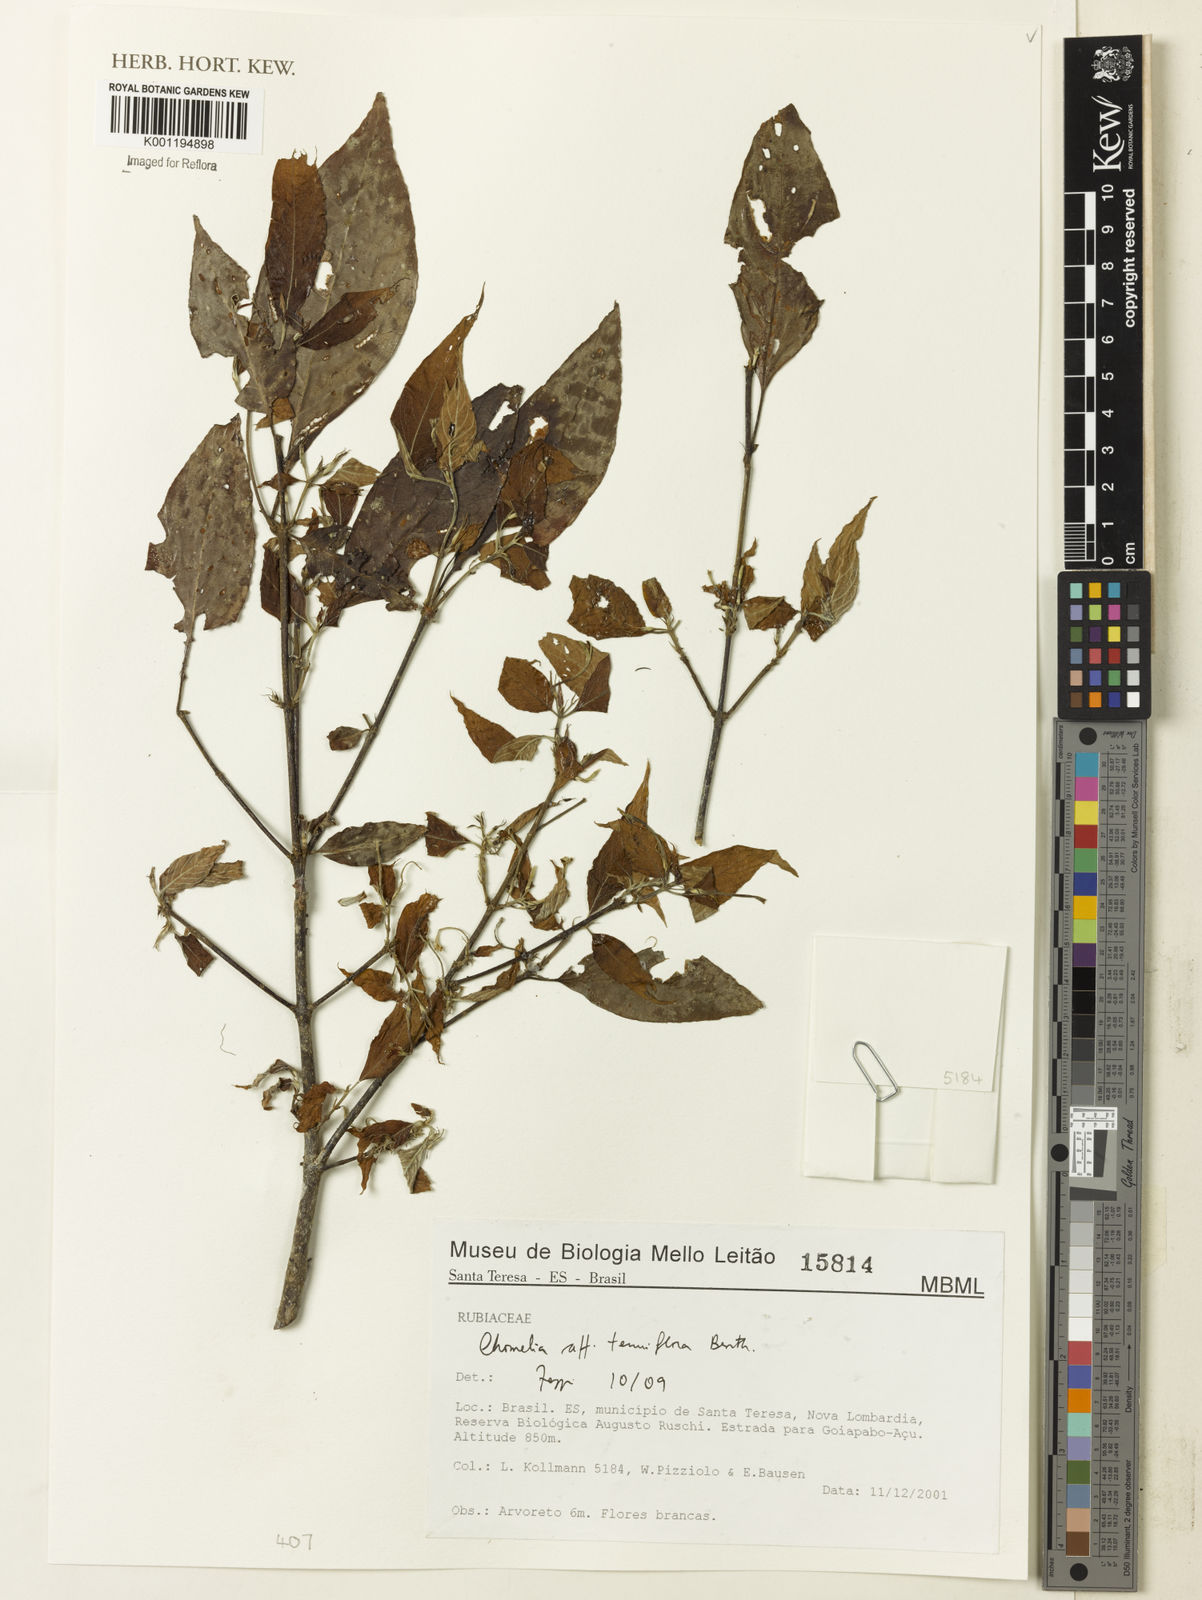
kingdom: Plantae
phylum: Tracheophyta
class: Magnoliopsida
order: Gentianales
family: Rubiaceae
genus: Chomelia
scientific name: Chomelia tenuiflora
